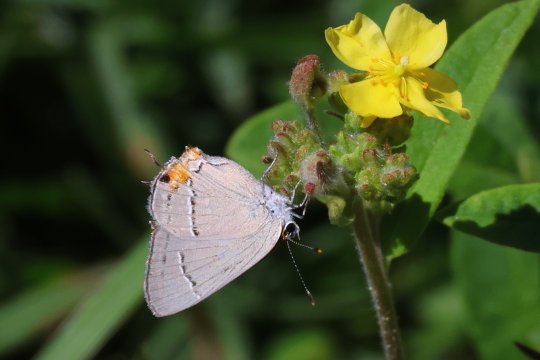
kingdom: Animalia
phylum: Arthropoda
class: Insecta
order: Lepidoptera
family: Lycaenidae
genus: Strymon
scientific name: Strymon melinus
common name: Gray Hairstreak
